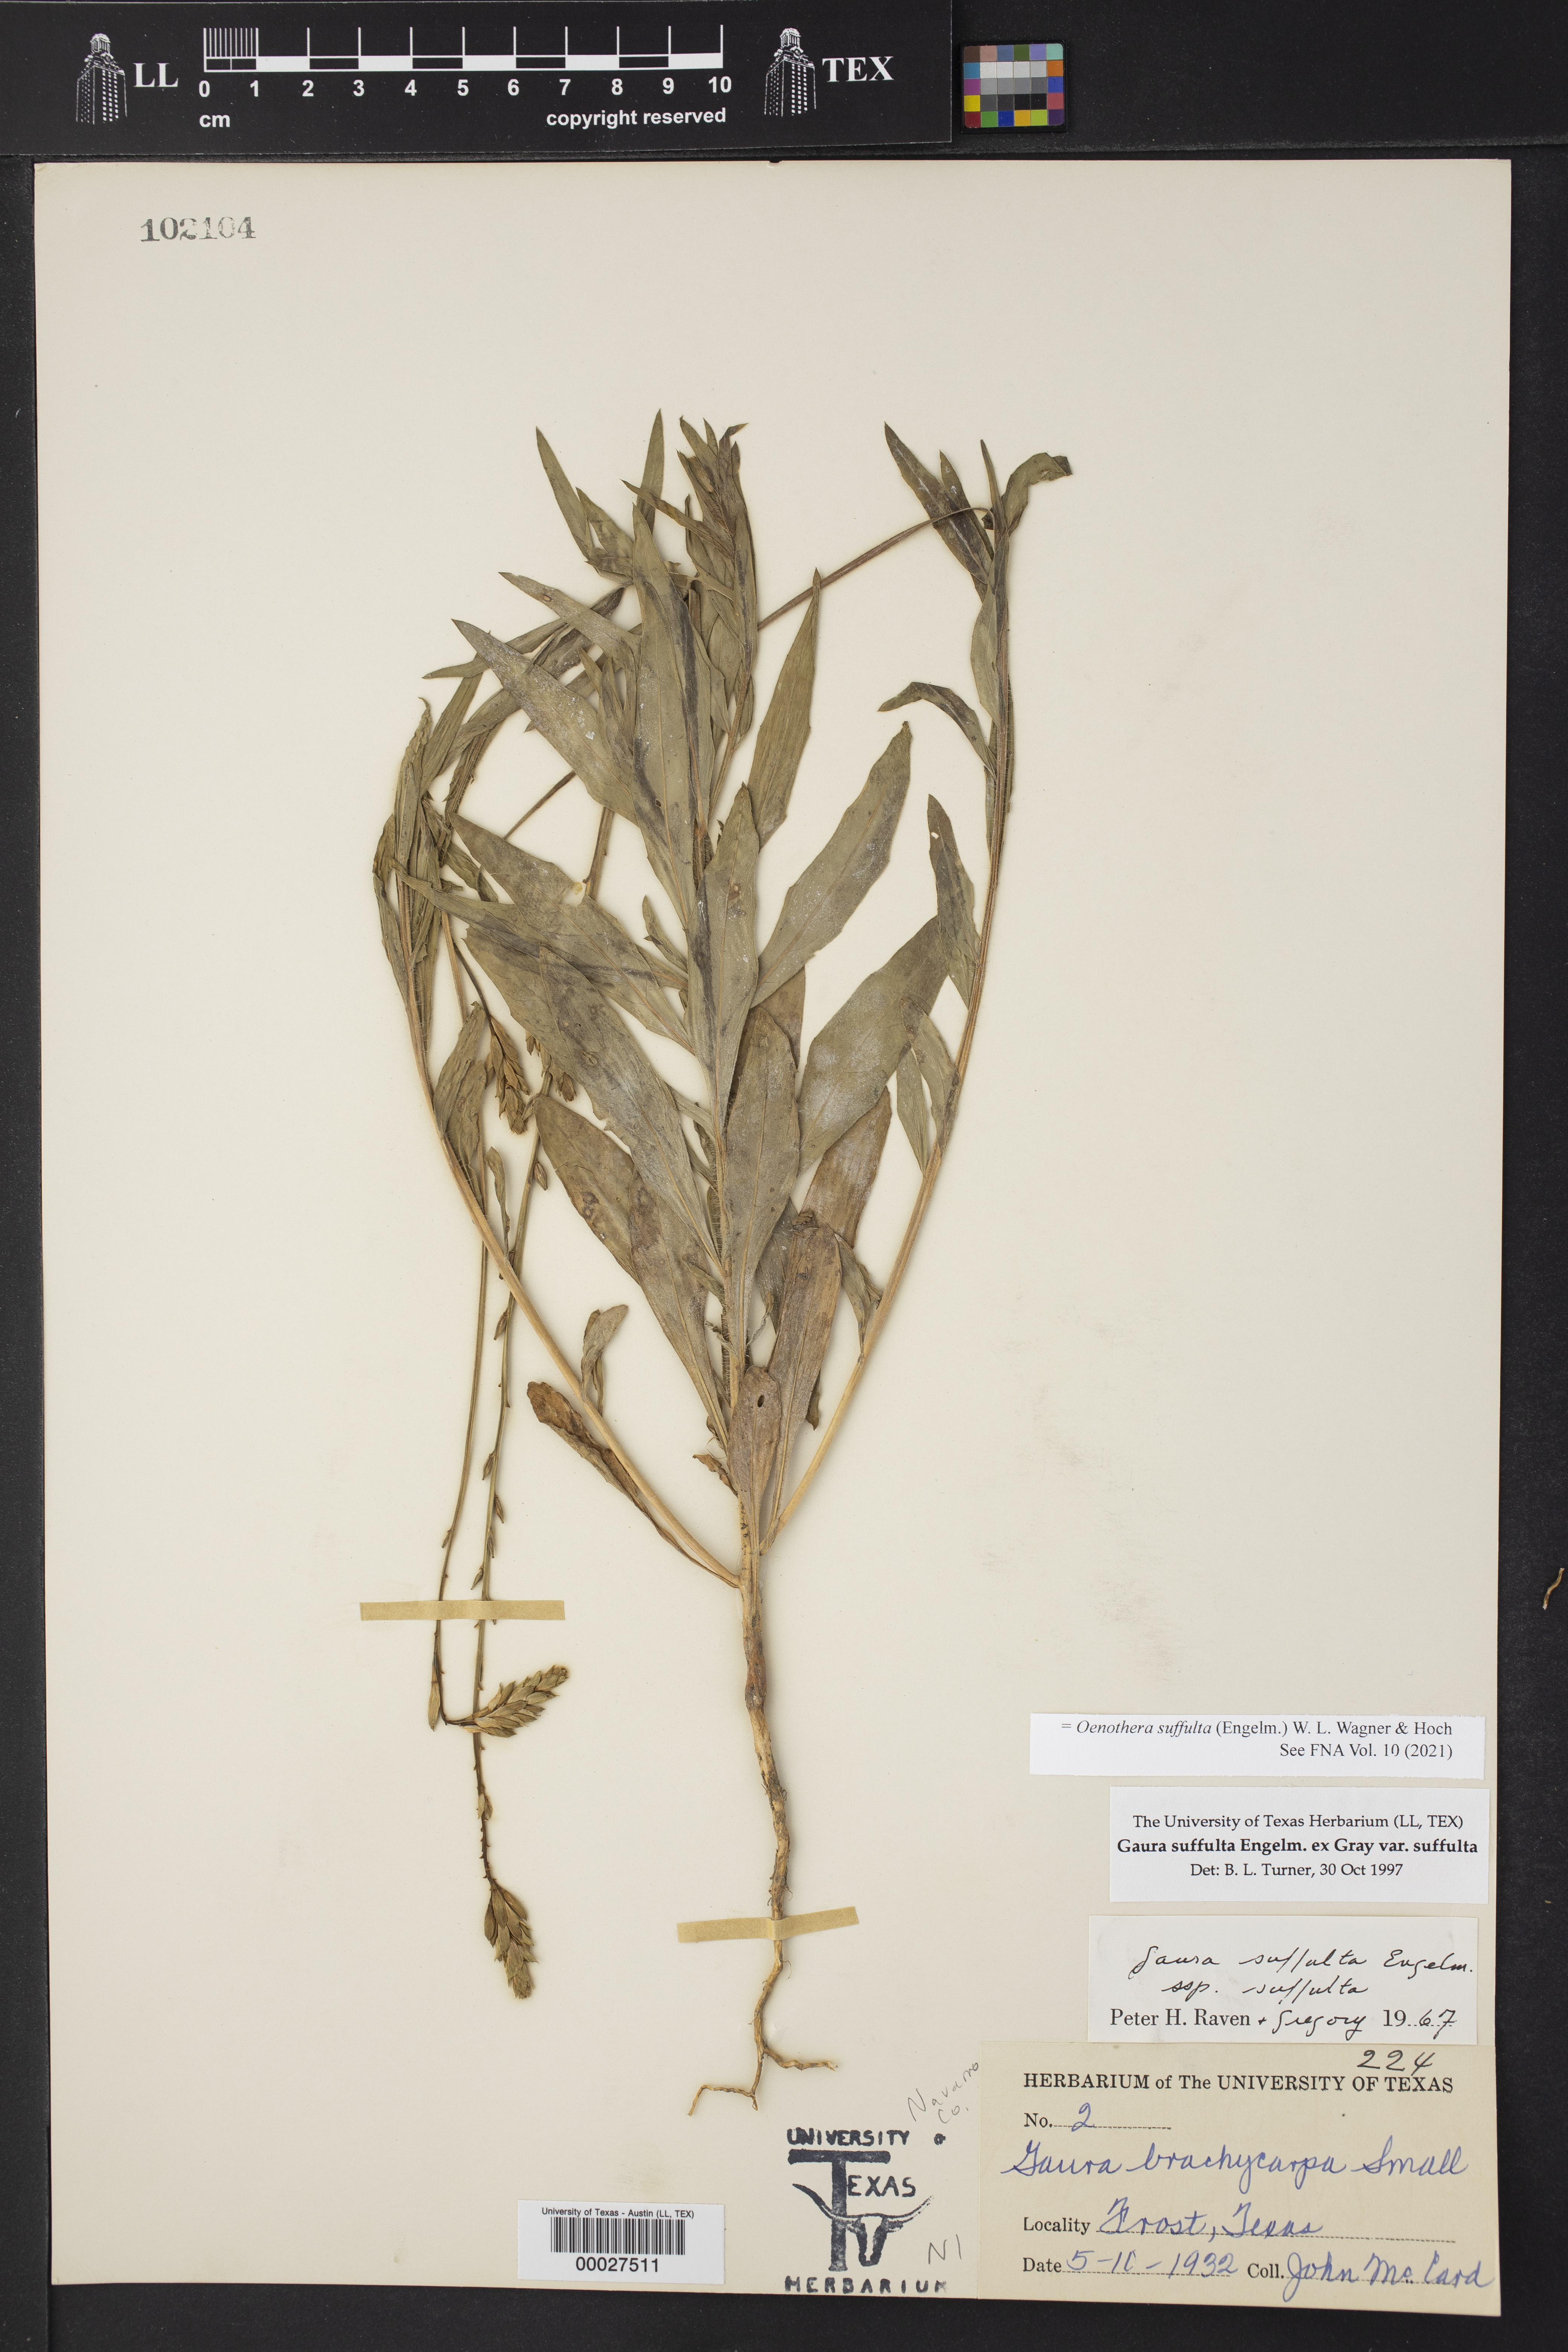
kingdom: Plantae
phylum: Tracheophyta
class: Magnoliopsida
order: Myrtales
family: Onagraceae
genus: Oenothera
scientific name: Oenothera suffulta
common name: Kisses
